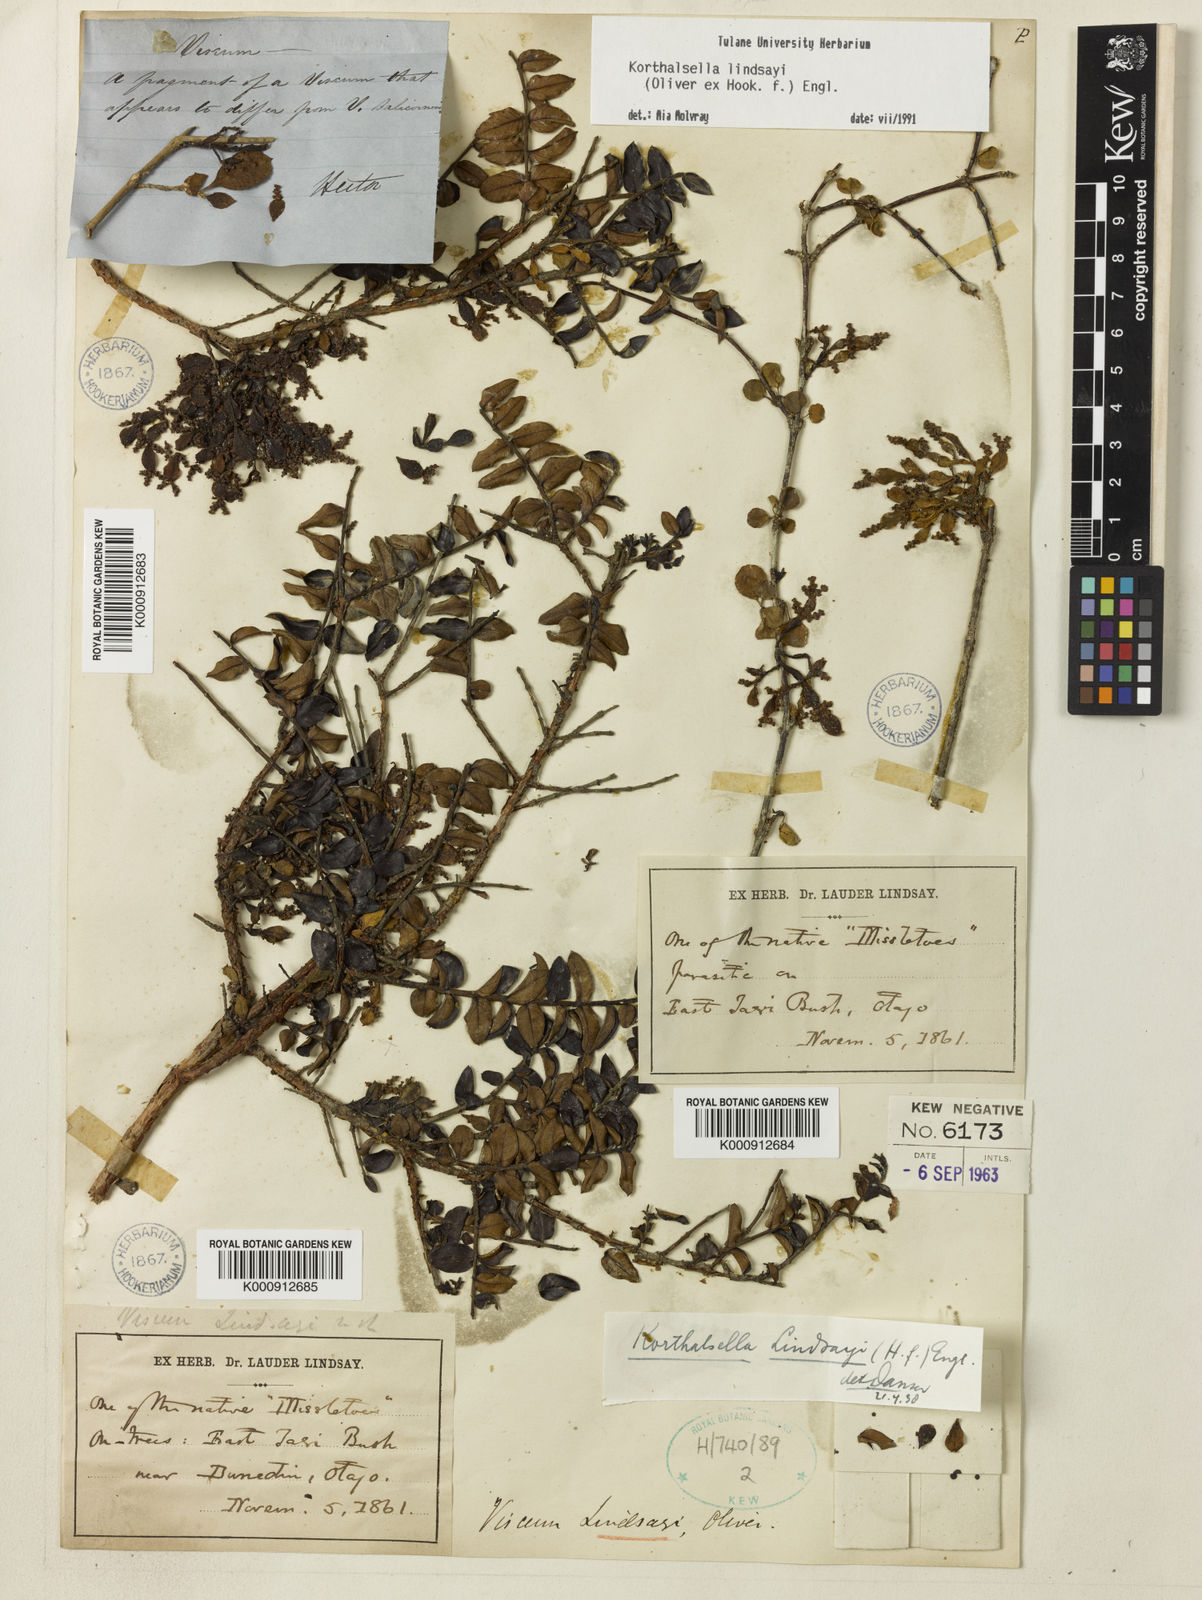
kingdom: Plantae
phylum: Tracheophyta
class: Magnoliopsida
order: Santalales
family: Viscaceae
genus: Korthalsella
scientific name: Korthalsella lindsayi
